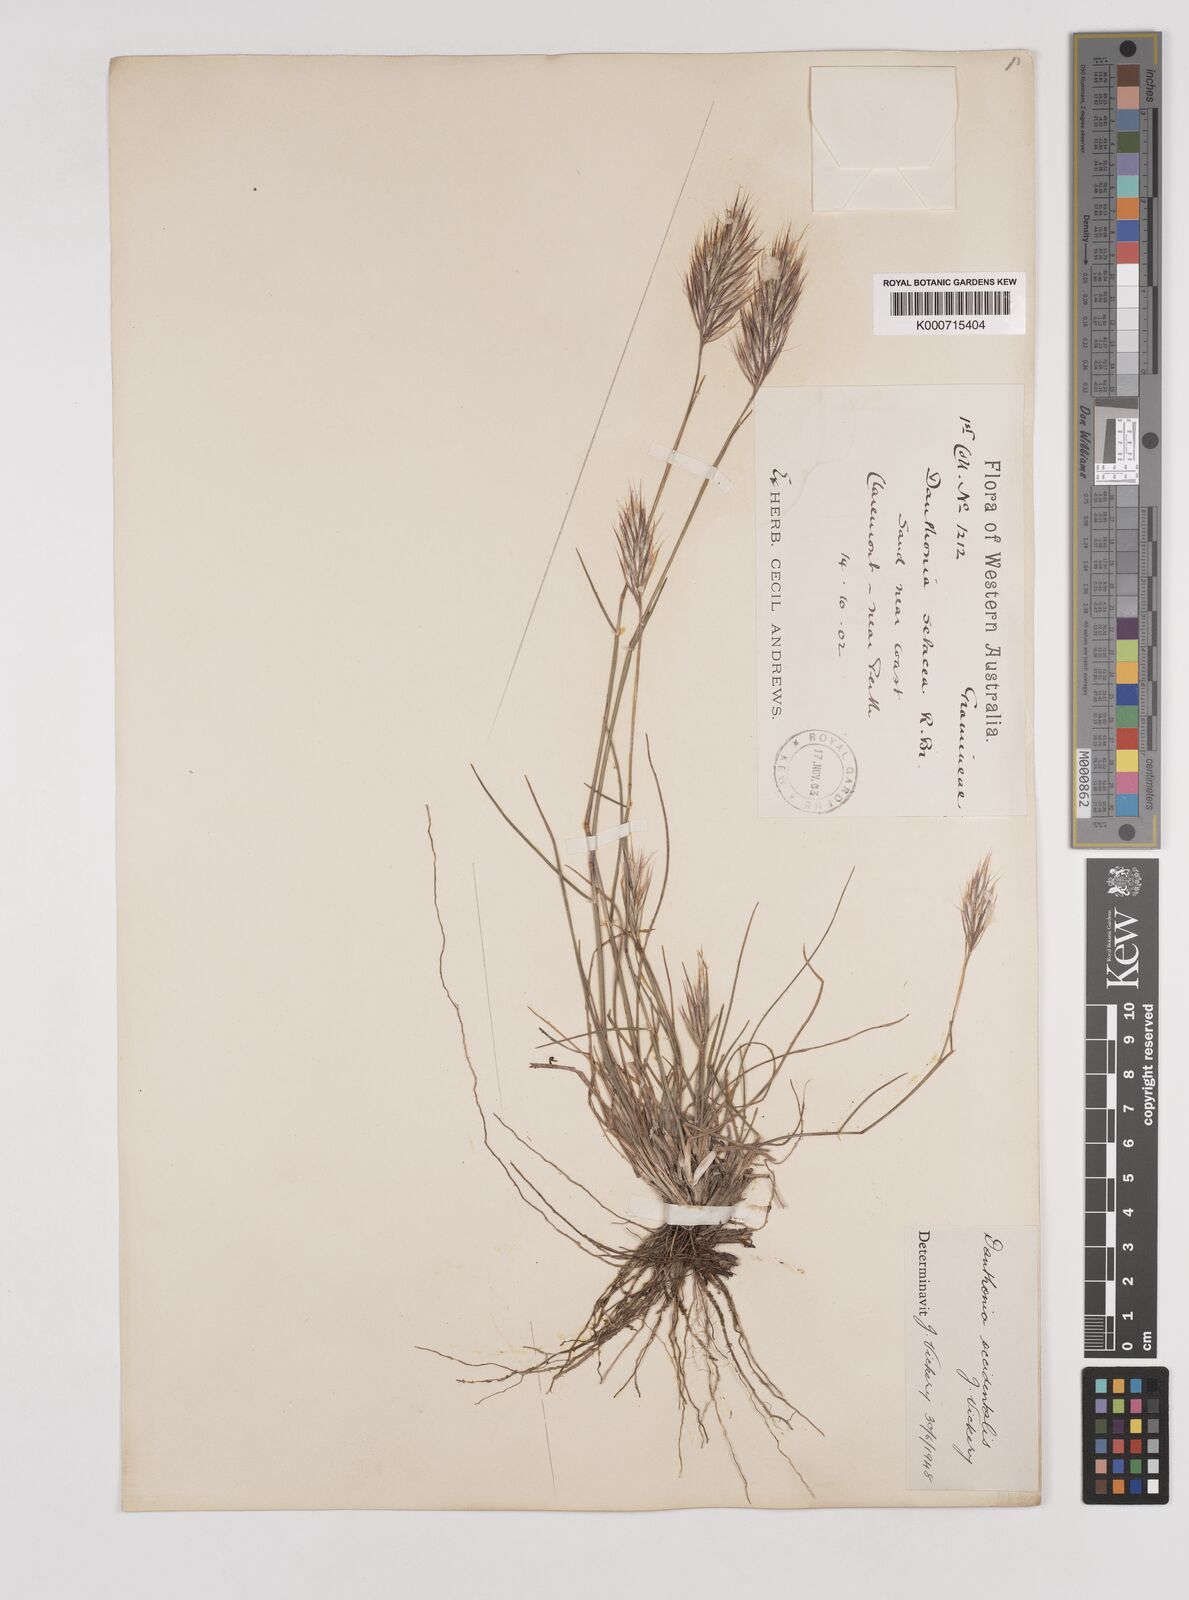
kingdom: Plantae
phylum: Tracheophyta
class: Liliopsida
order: Poales
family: Poaceae
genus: Rytidosperma
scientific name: Rytidosperma occidentale
